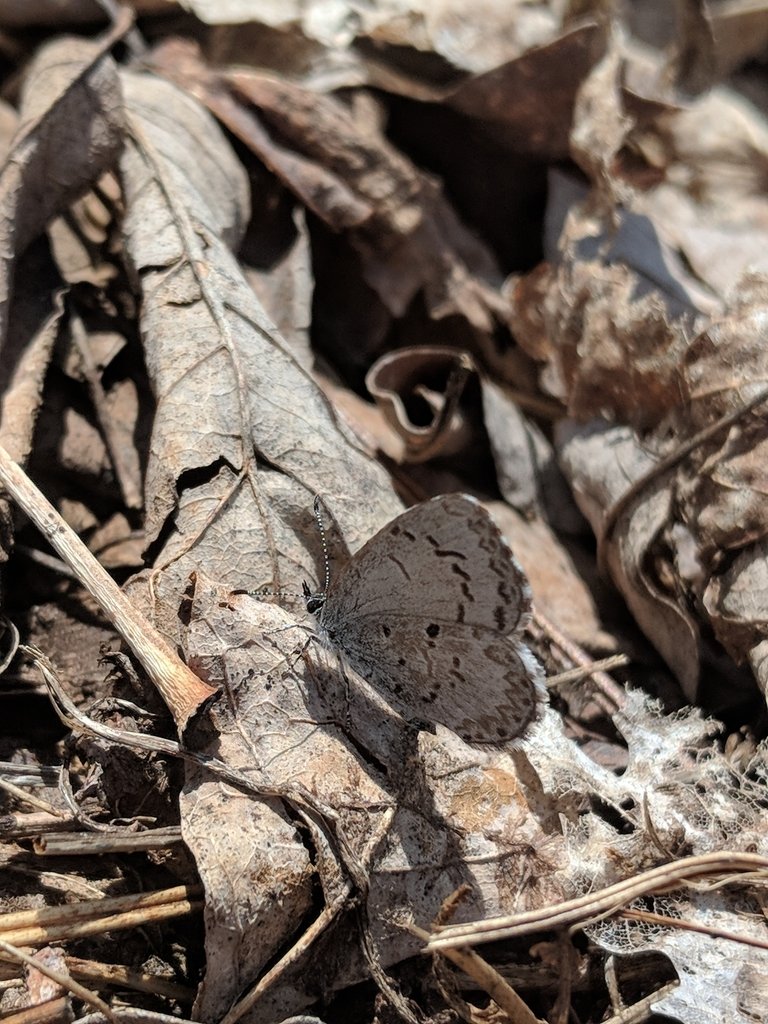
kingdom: Animalia
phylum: Arthropoda
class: Insecta
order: Lepidoptera
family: Lycaenidae
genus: Celastrina
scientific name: Celastrina lucia
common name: Northern Spring Azure
